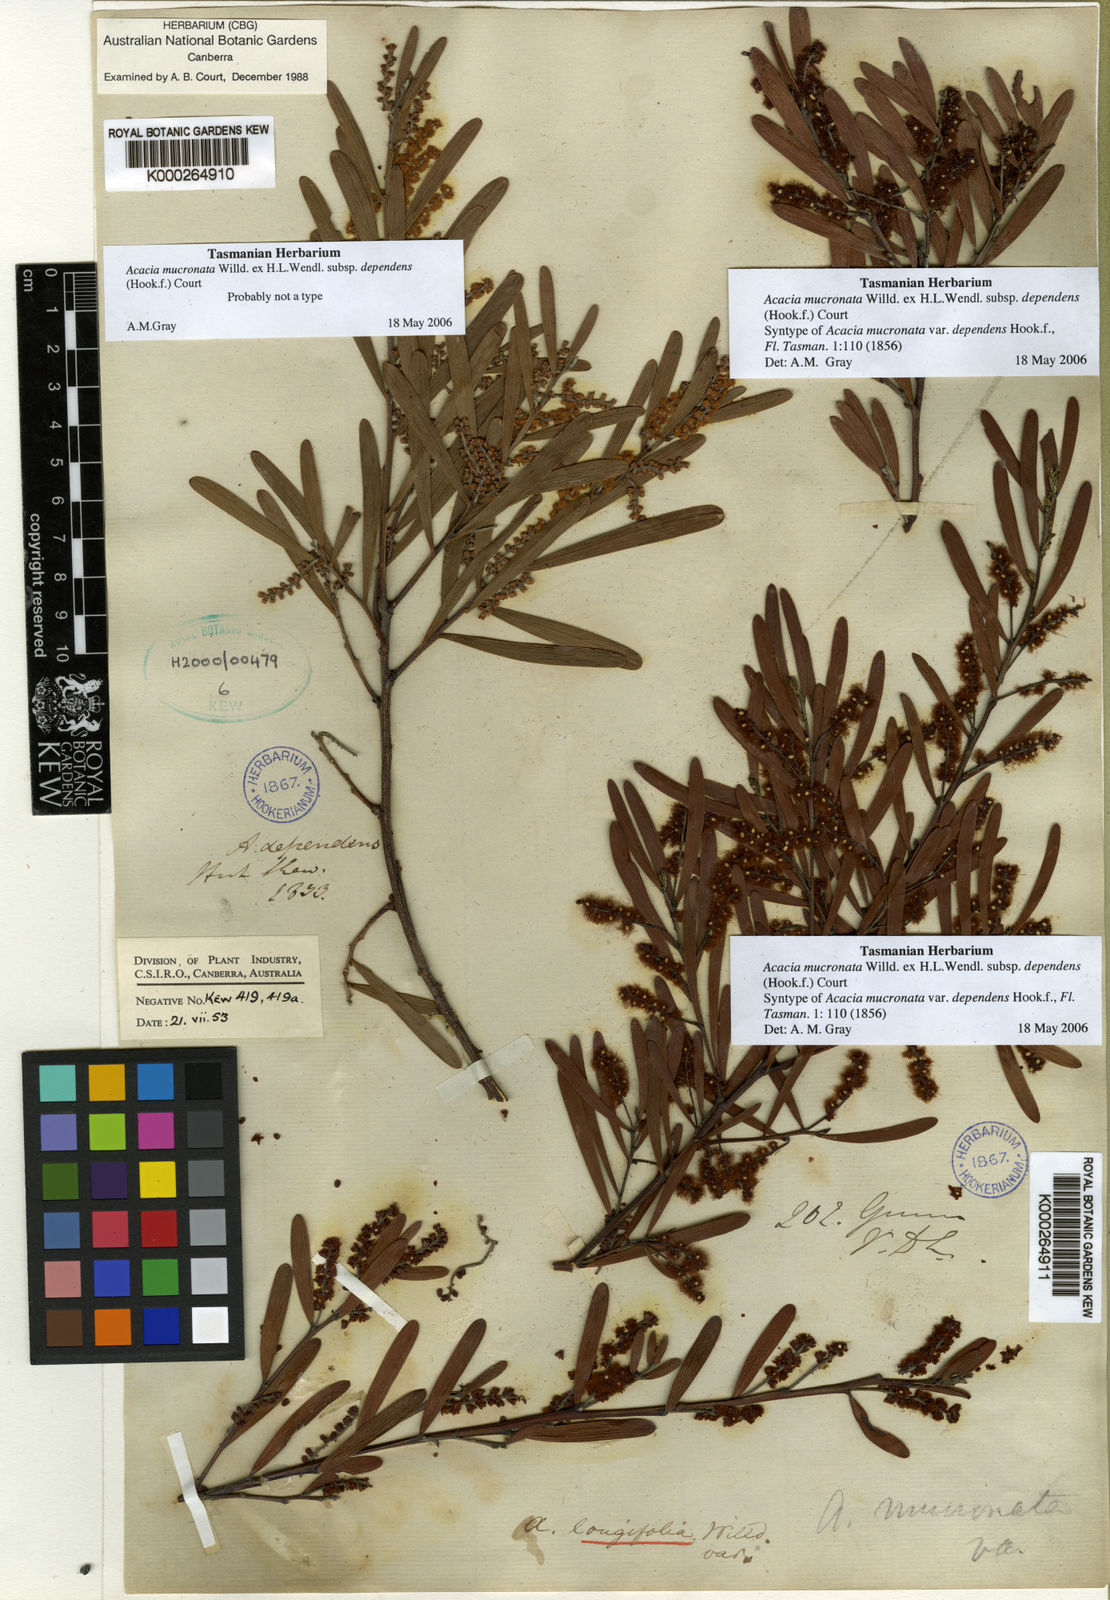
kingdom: Plantae
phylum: Tracheophyta
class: Magnoliopsida
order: Fabales
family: Fabaceae
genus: Acacia
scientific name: Acacia mucronata
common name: Variable sallow wattle
